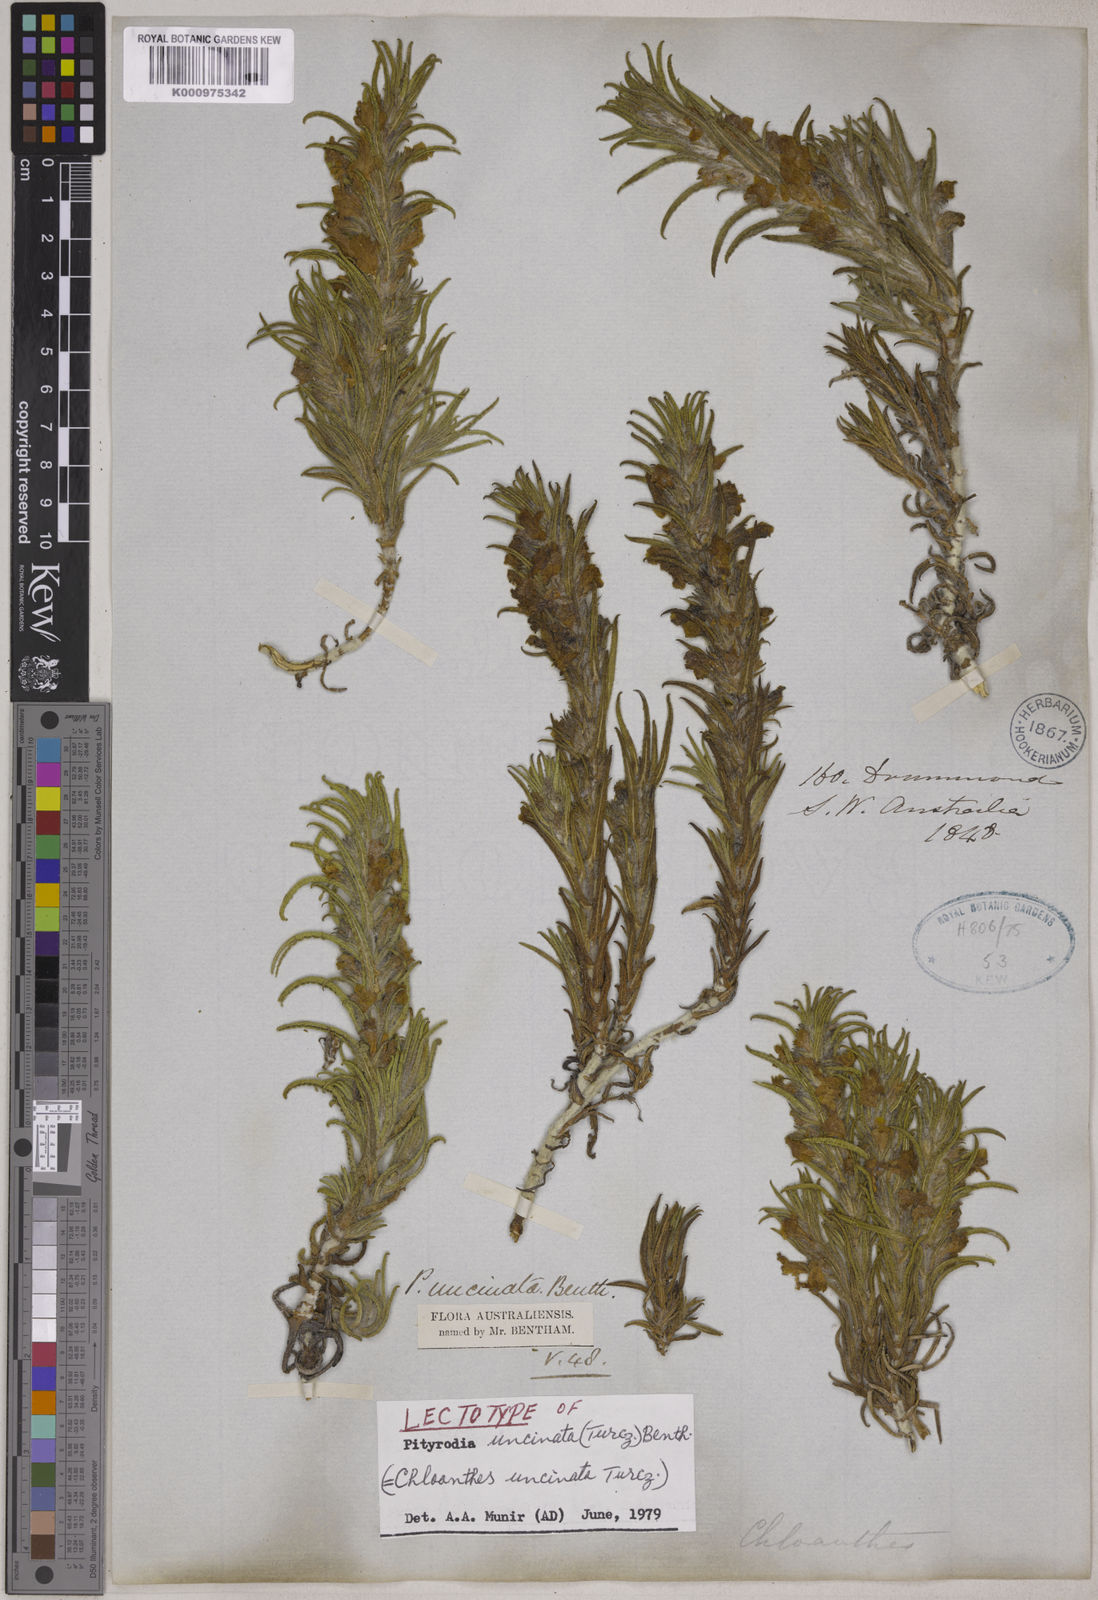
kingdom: Plantae
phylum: Tracheophyta
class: Magnoliopsida
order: Lamiales
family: Lamiaceae
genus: Hemiphora
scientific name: Hemiphora uncinata
